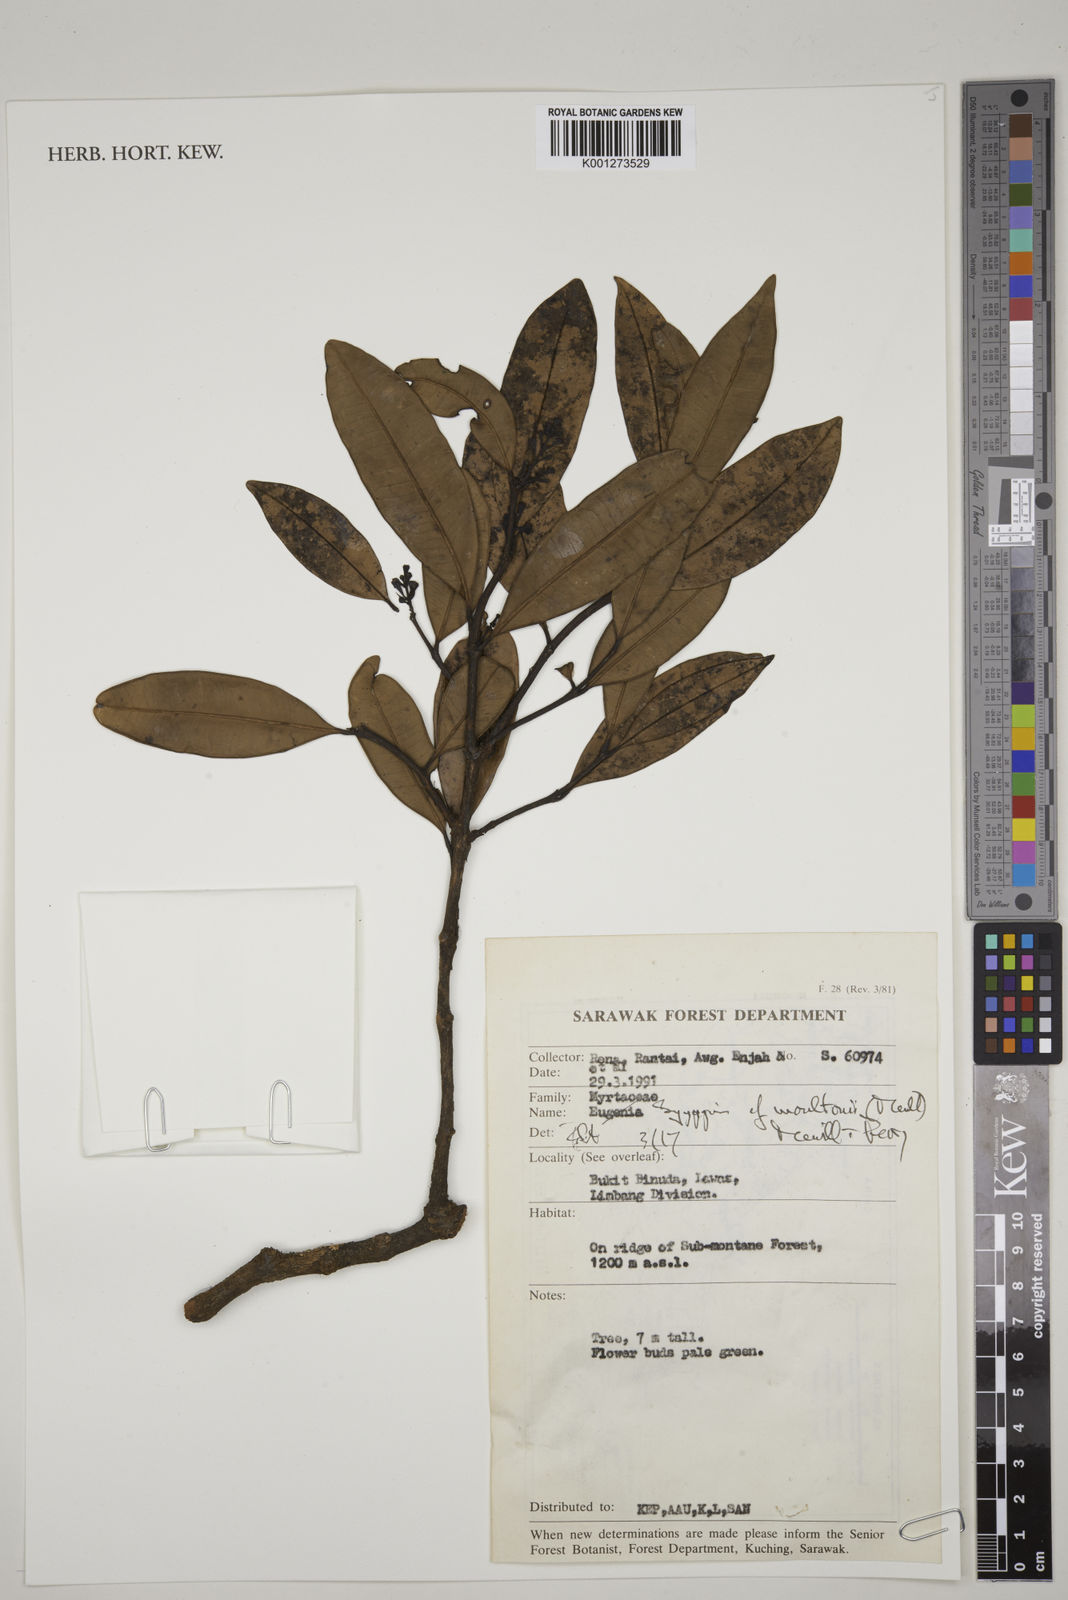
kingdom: Plantae
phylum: Tracheophyta
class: Magnoliopsida
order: Myrtales
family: Myrtaceae
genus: Syzygium
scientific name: Syzygium moultonii
